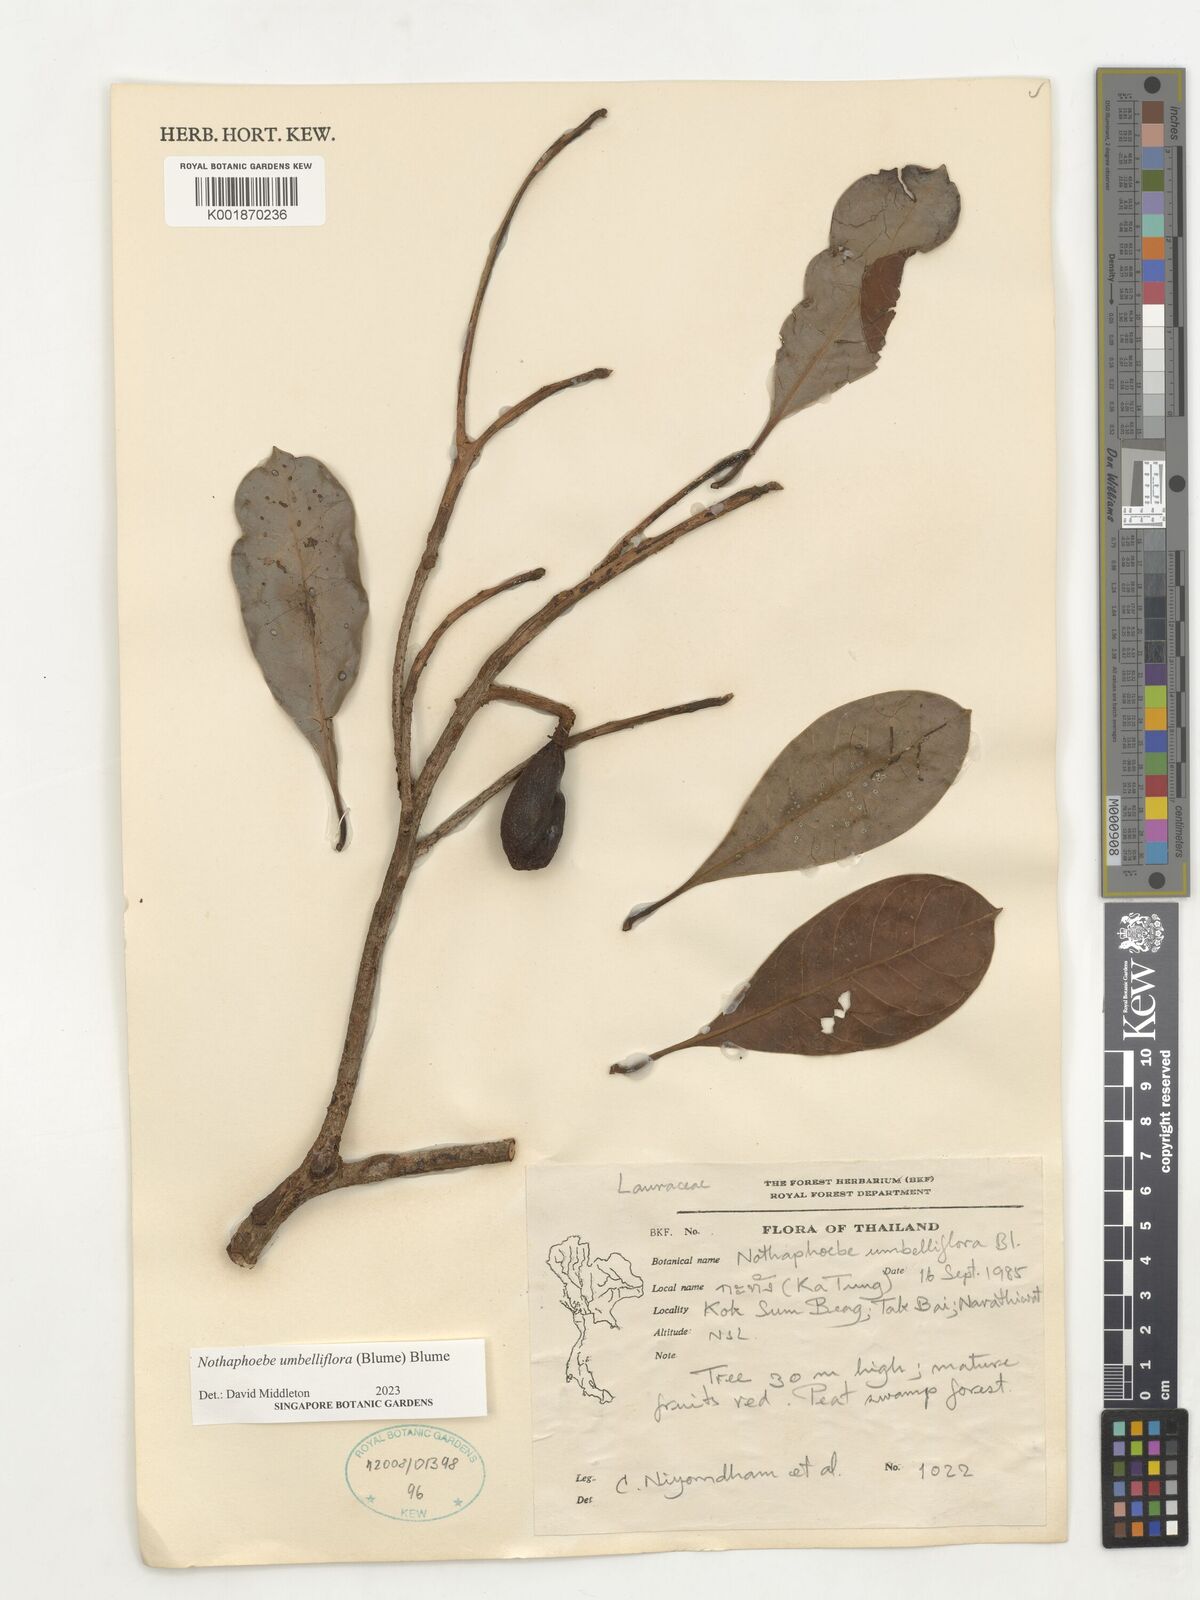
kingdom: Plantae
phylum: Tracheophyta
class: Magnoliopsida
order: Laurales
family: Lauraceae
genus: Nothaphoebe
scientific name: Nothaphoebe umbelliflora
